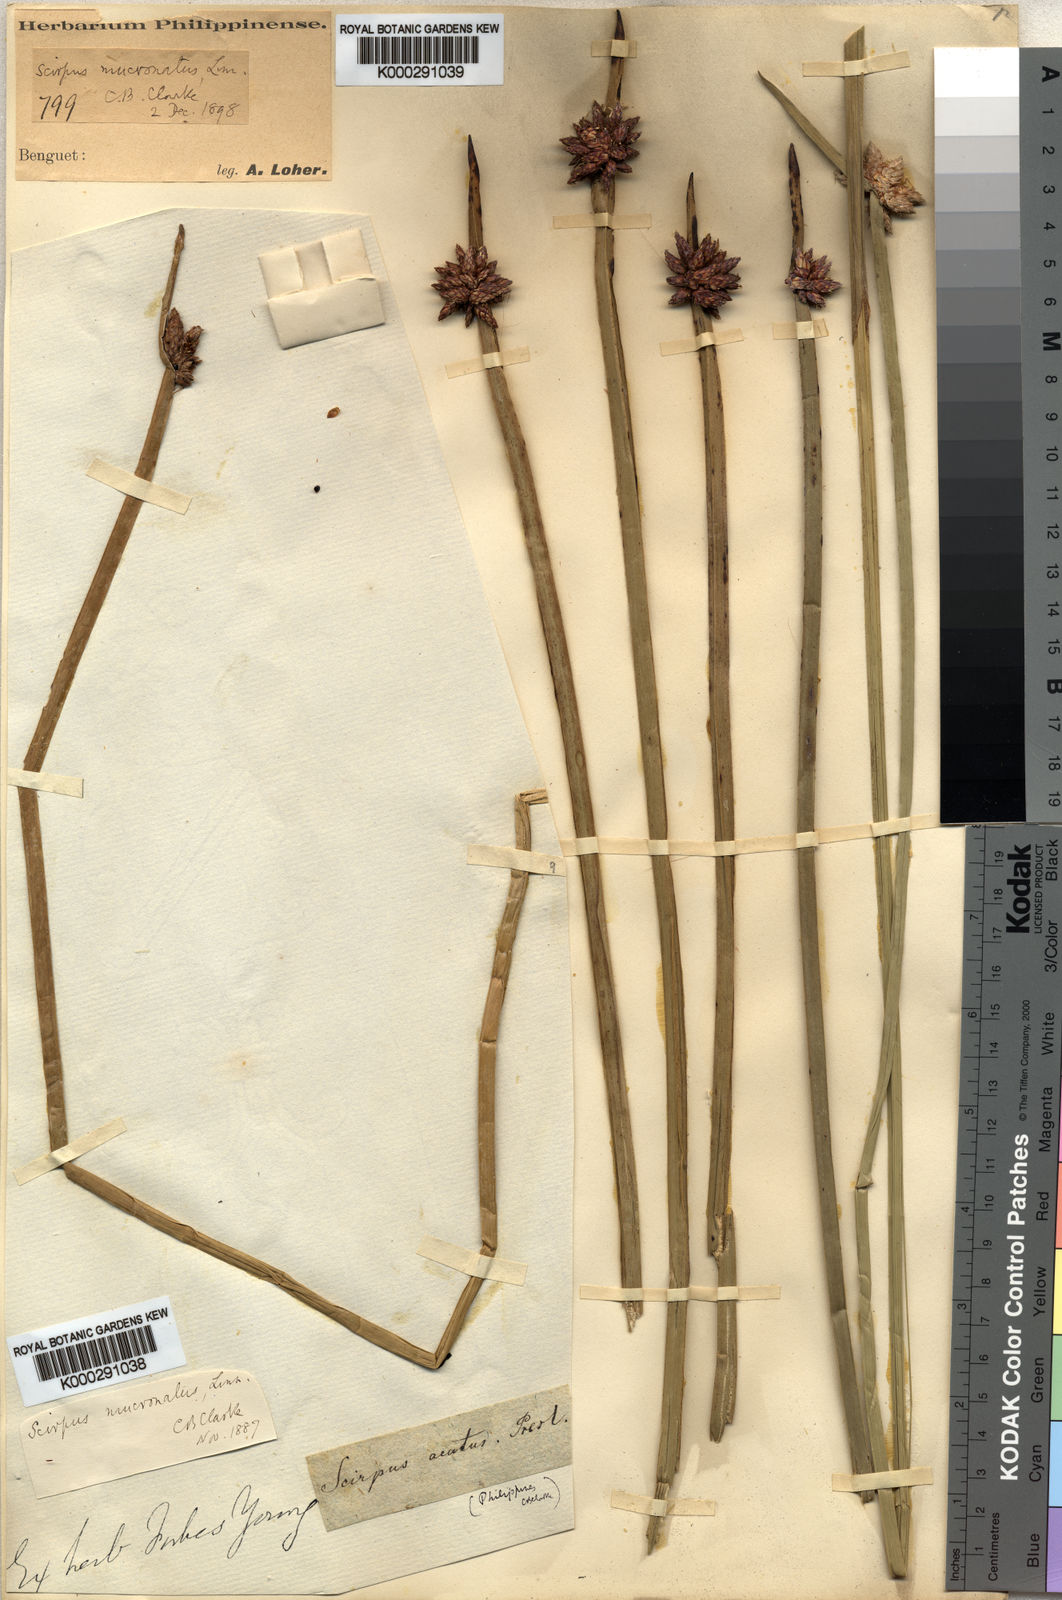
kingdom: Plantae
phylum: Tracheophyta
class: Liliopsida
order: Poales
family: Cyperaceae
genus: Schoenoplectiella
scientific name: Schoenoplectiella mucronata
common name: Bog bulrush
